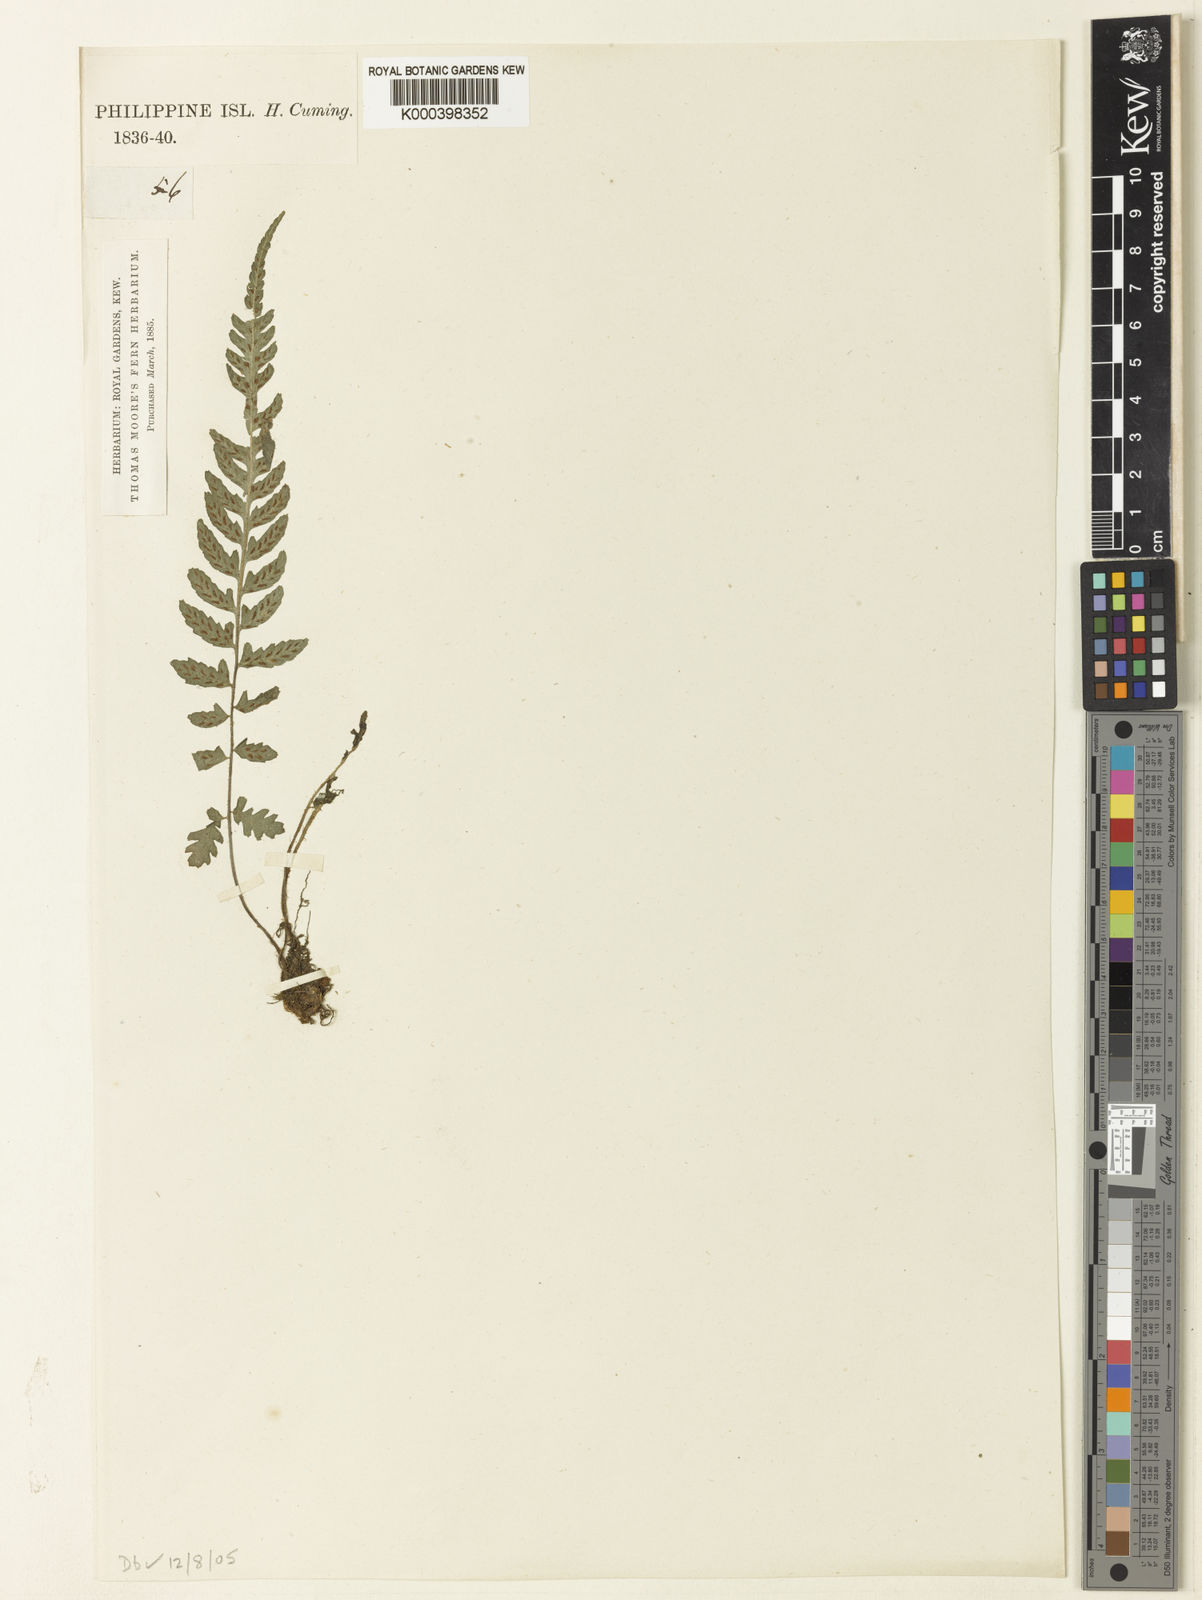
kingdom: Plantae
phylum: Tracheophyta
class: Polypodiopsida
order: Polypodiales
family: Athyriaceae
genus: Deparia
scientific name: Deparia confluens
